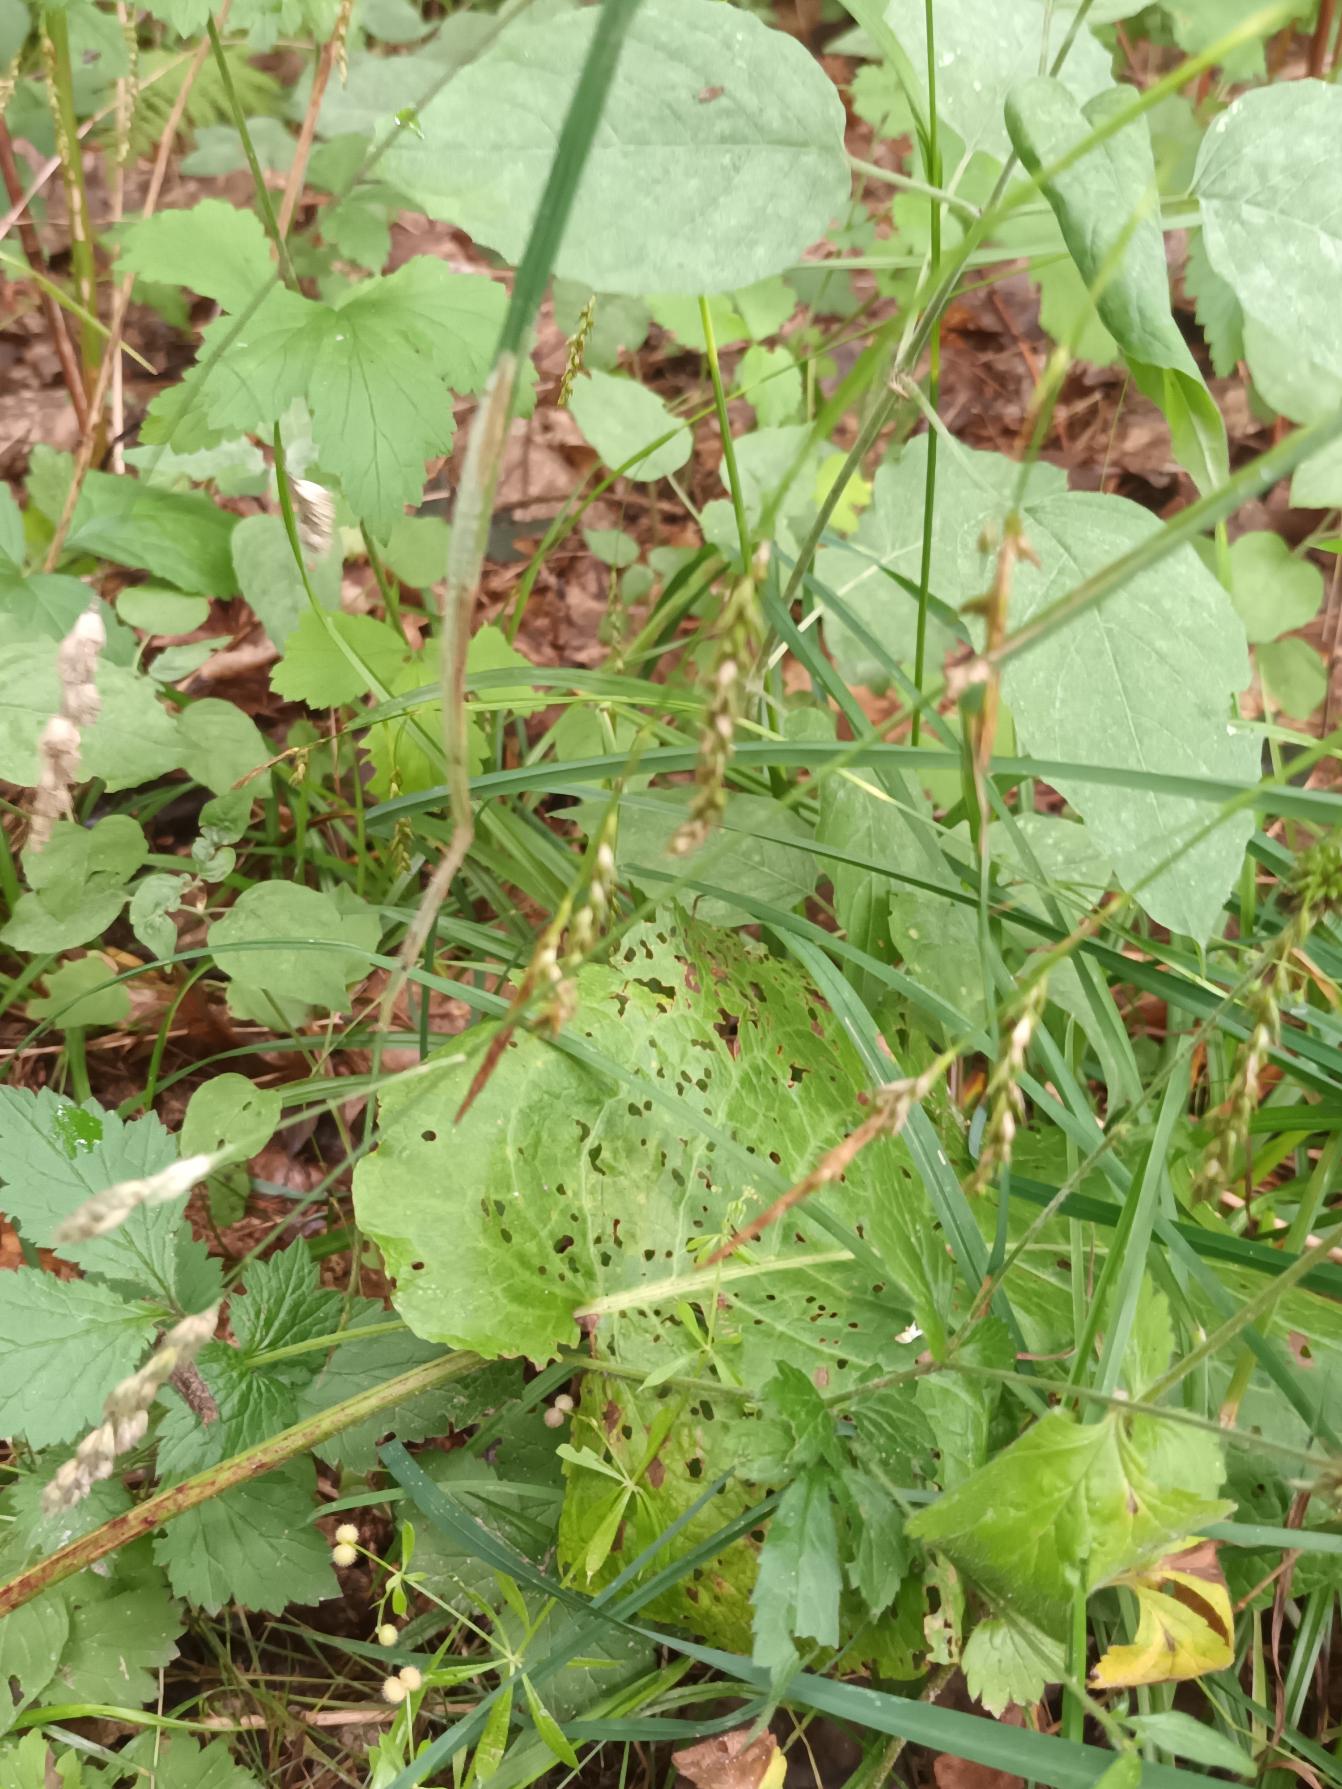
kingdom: Plantae
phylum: Tracheophyta
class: Liliopsida
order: Poales
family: Cyperaceae
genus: Carex
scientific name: Carex sylvatica
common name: Skov-star
